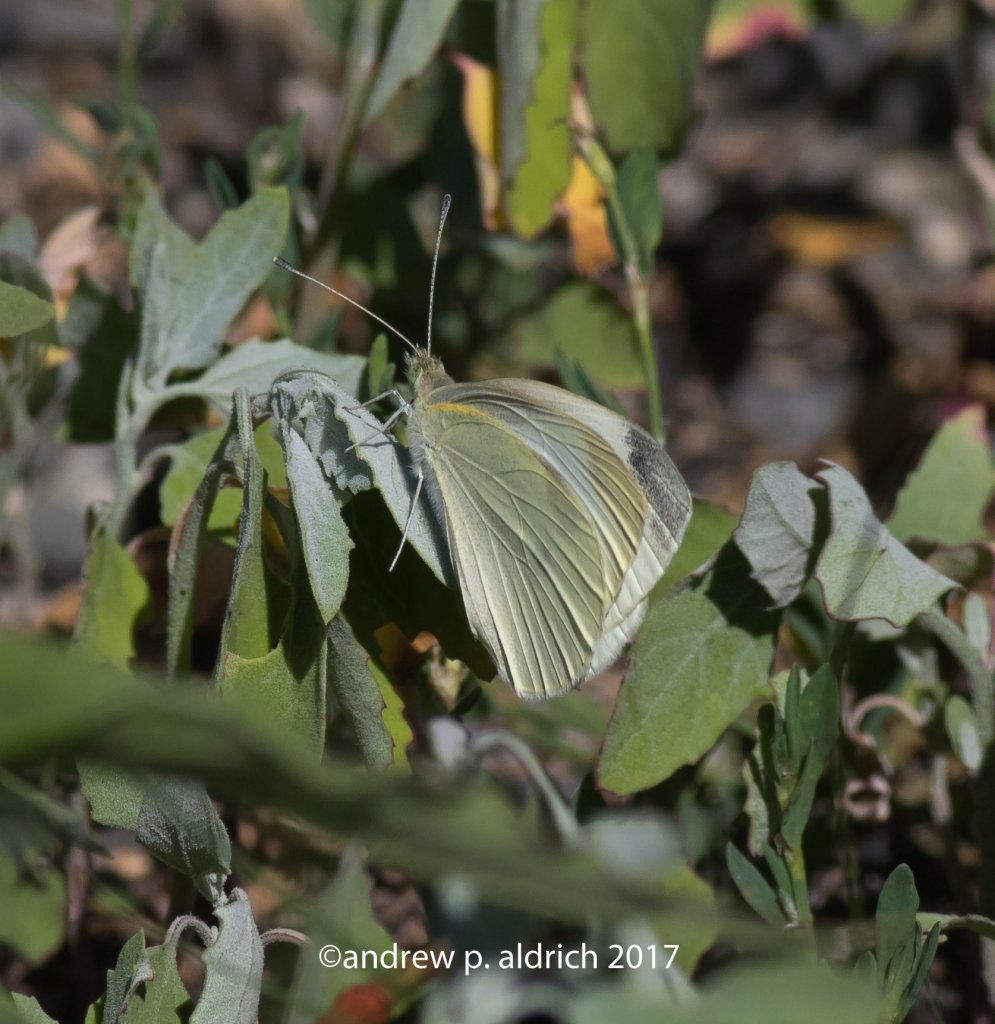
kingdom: Animalia
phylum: Arthropoda
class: Insecta
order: Lepidoptera
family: Pieridae
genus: Pieris
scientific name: Pieris rapae
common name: Cabbage White
